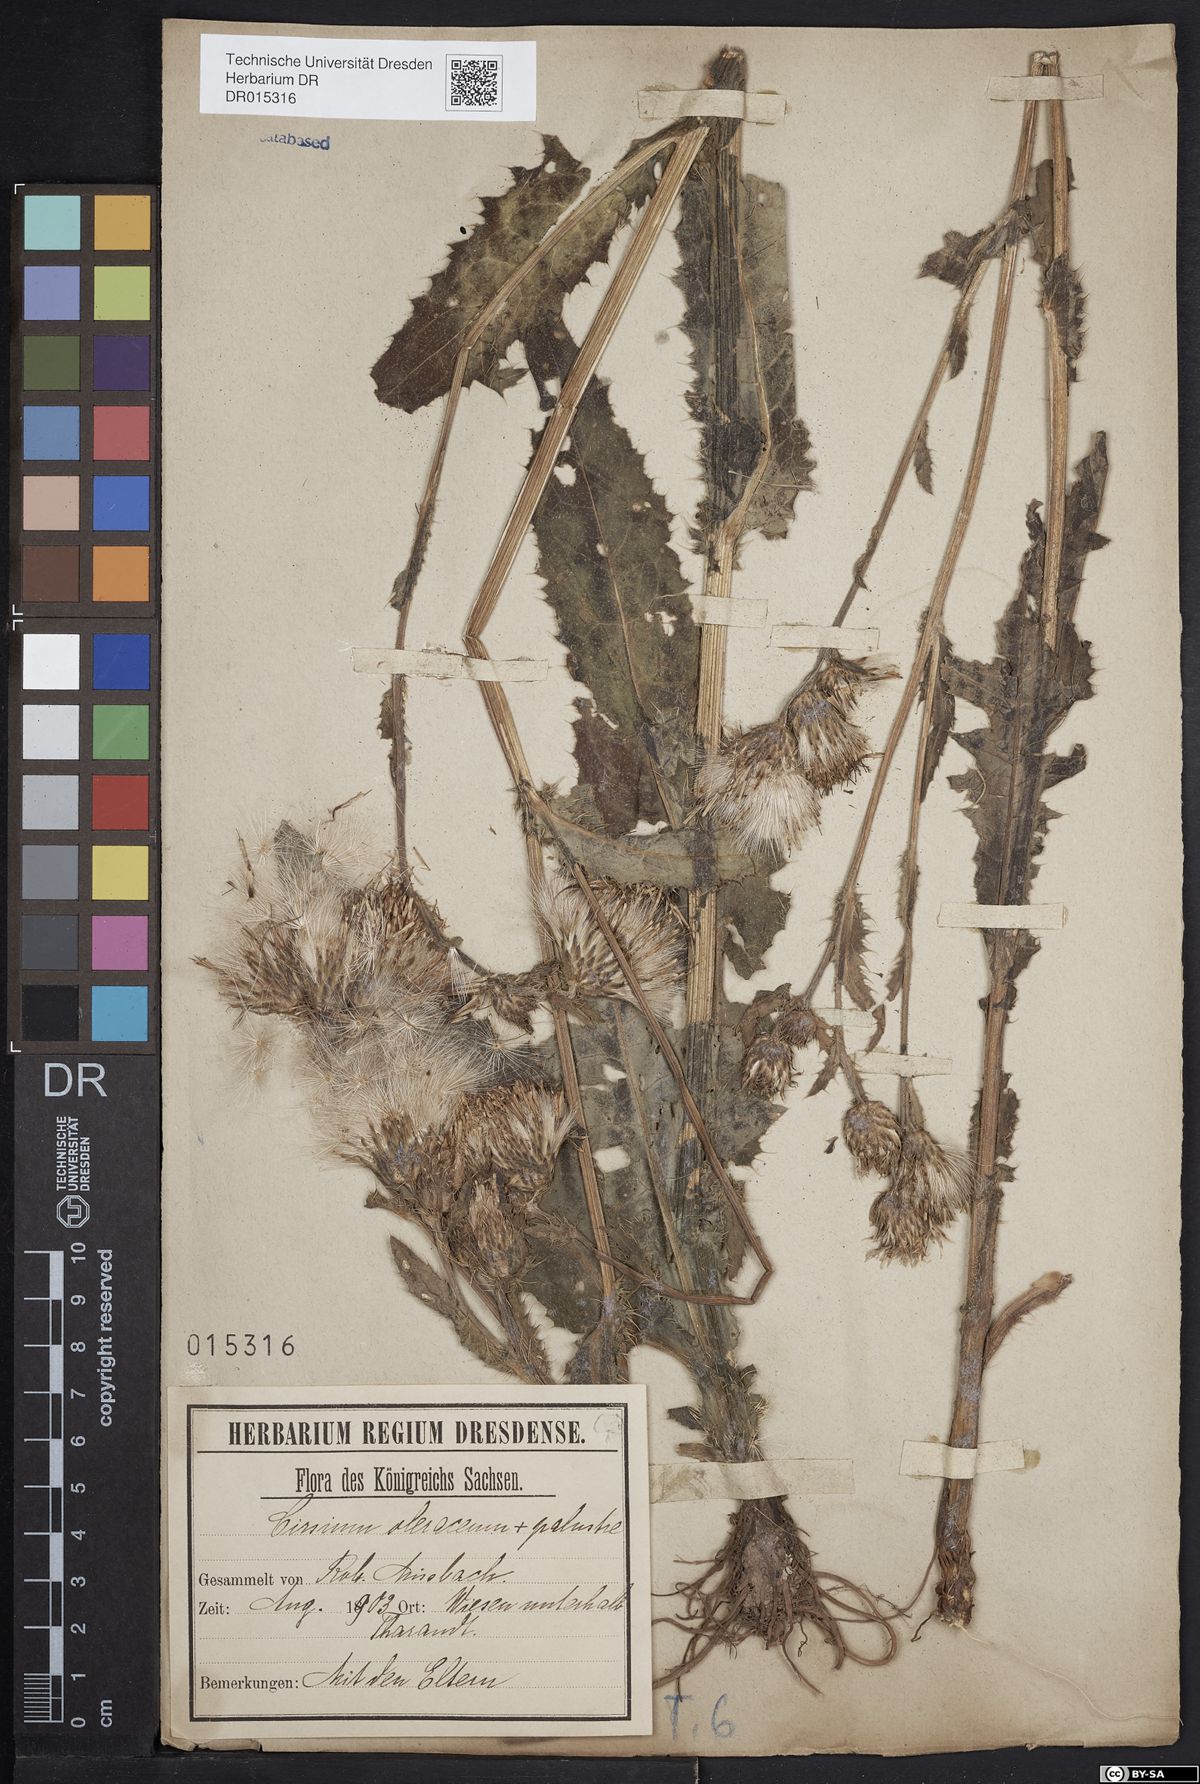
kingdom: Plantae
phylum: Tracheophyta
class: Magnoliopsida
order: Asterales
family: Asteraceae
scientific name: Asteraceae
